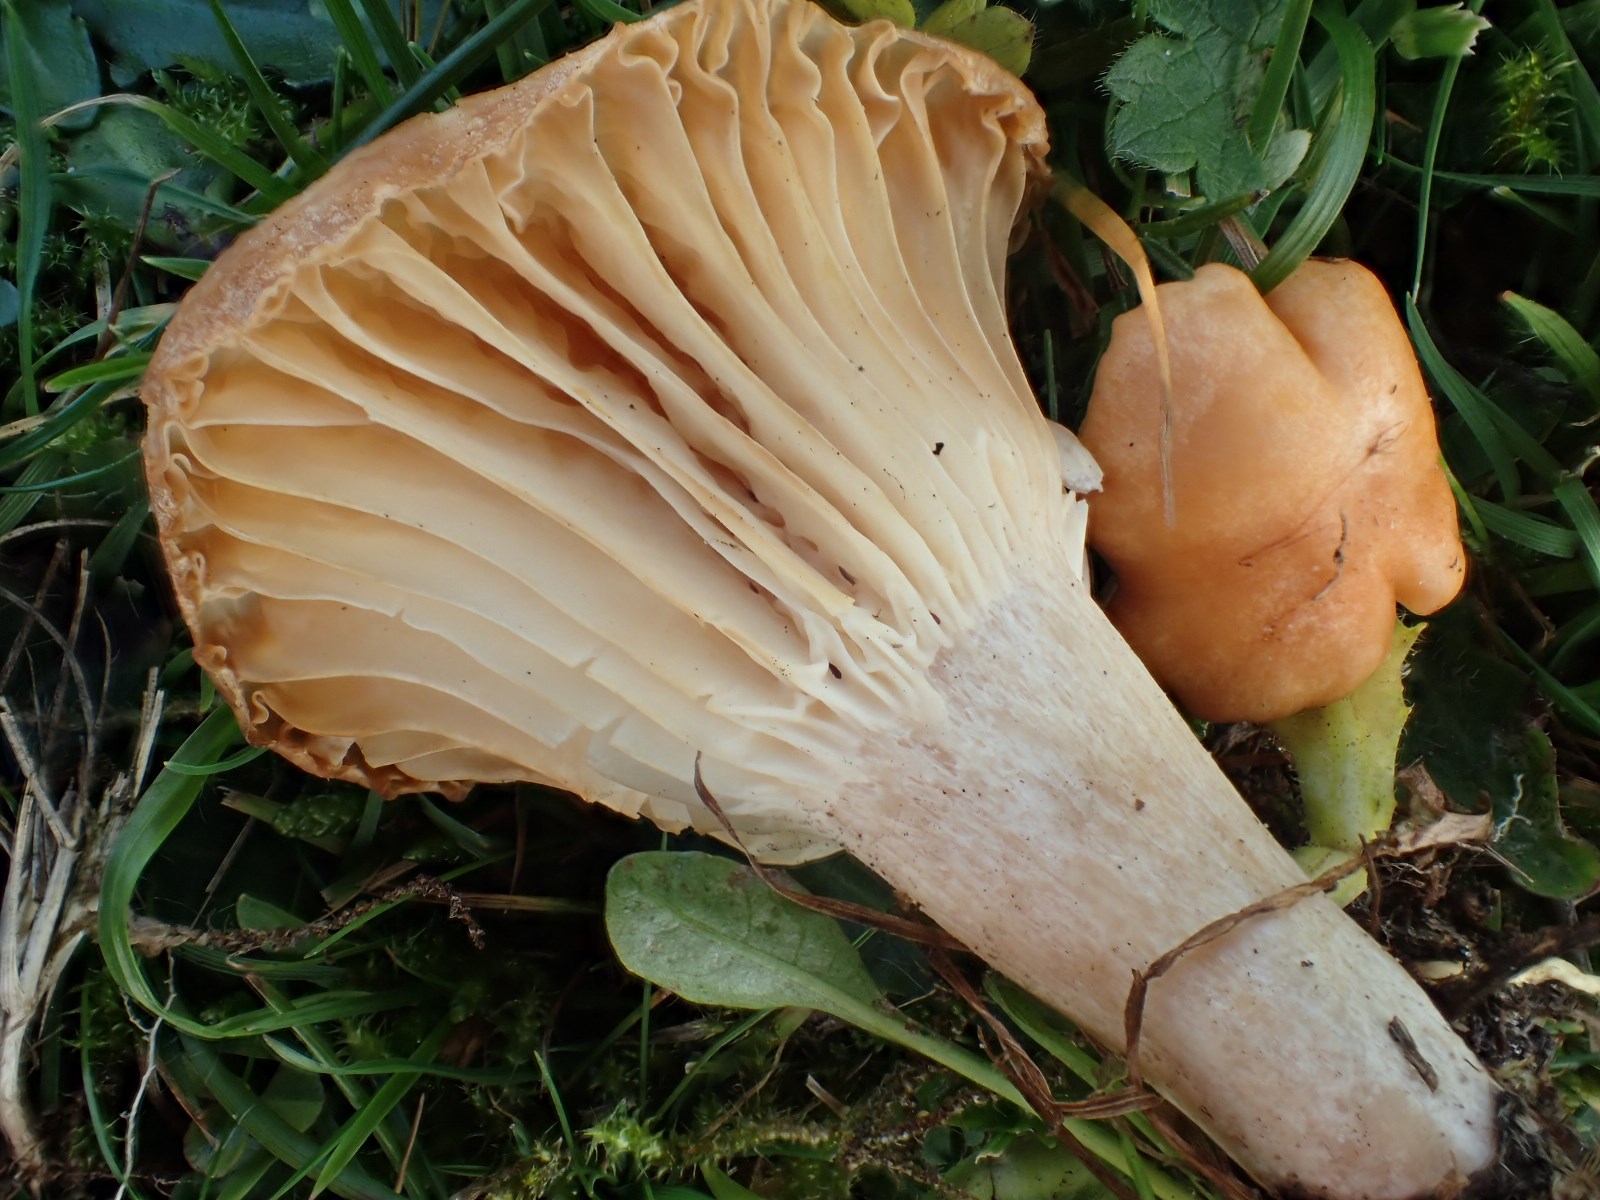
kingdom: Fungi
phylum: Basidiomycota
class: Agaricomycetes
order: Agaricales
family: Hygrophoraceae
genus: Cuphophyllus
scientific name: Cuphophyllus pratensis
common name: eng-vokshat
